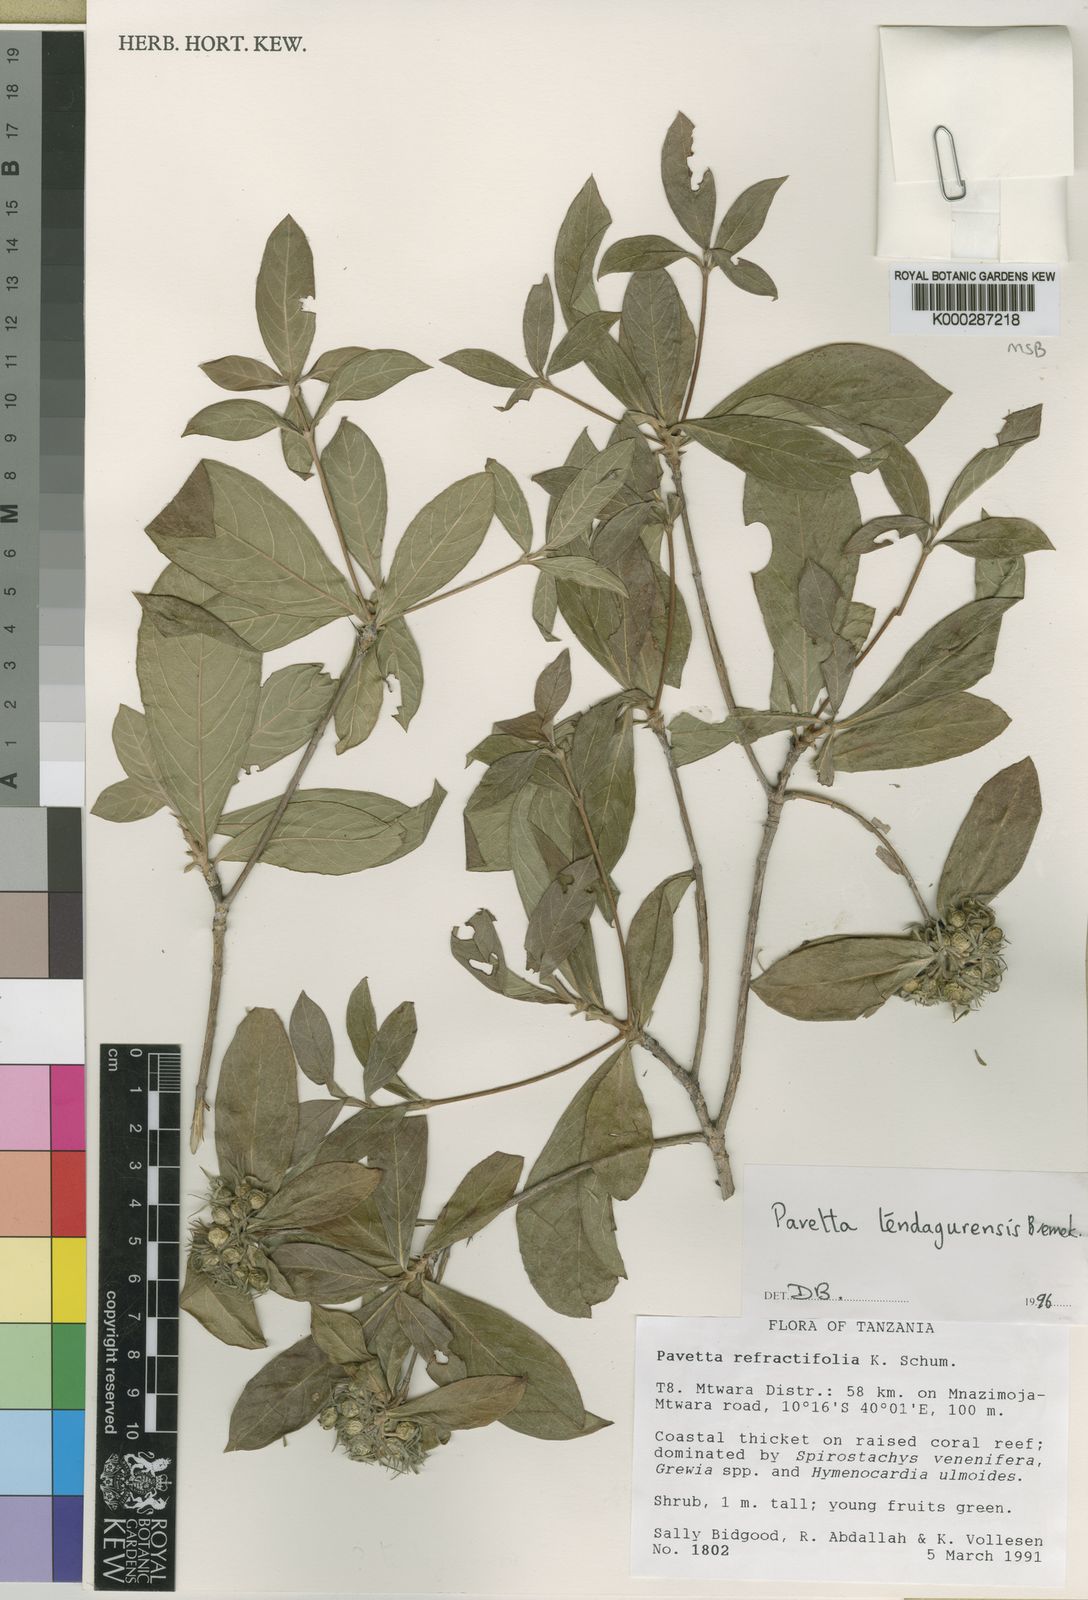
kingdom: Plantae
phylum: Tracheophyta
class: Magnoliopsida
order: Gentianales
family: Rubiaceae
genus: Pavetta
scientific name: Pavetta tendagurensis
